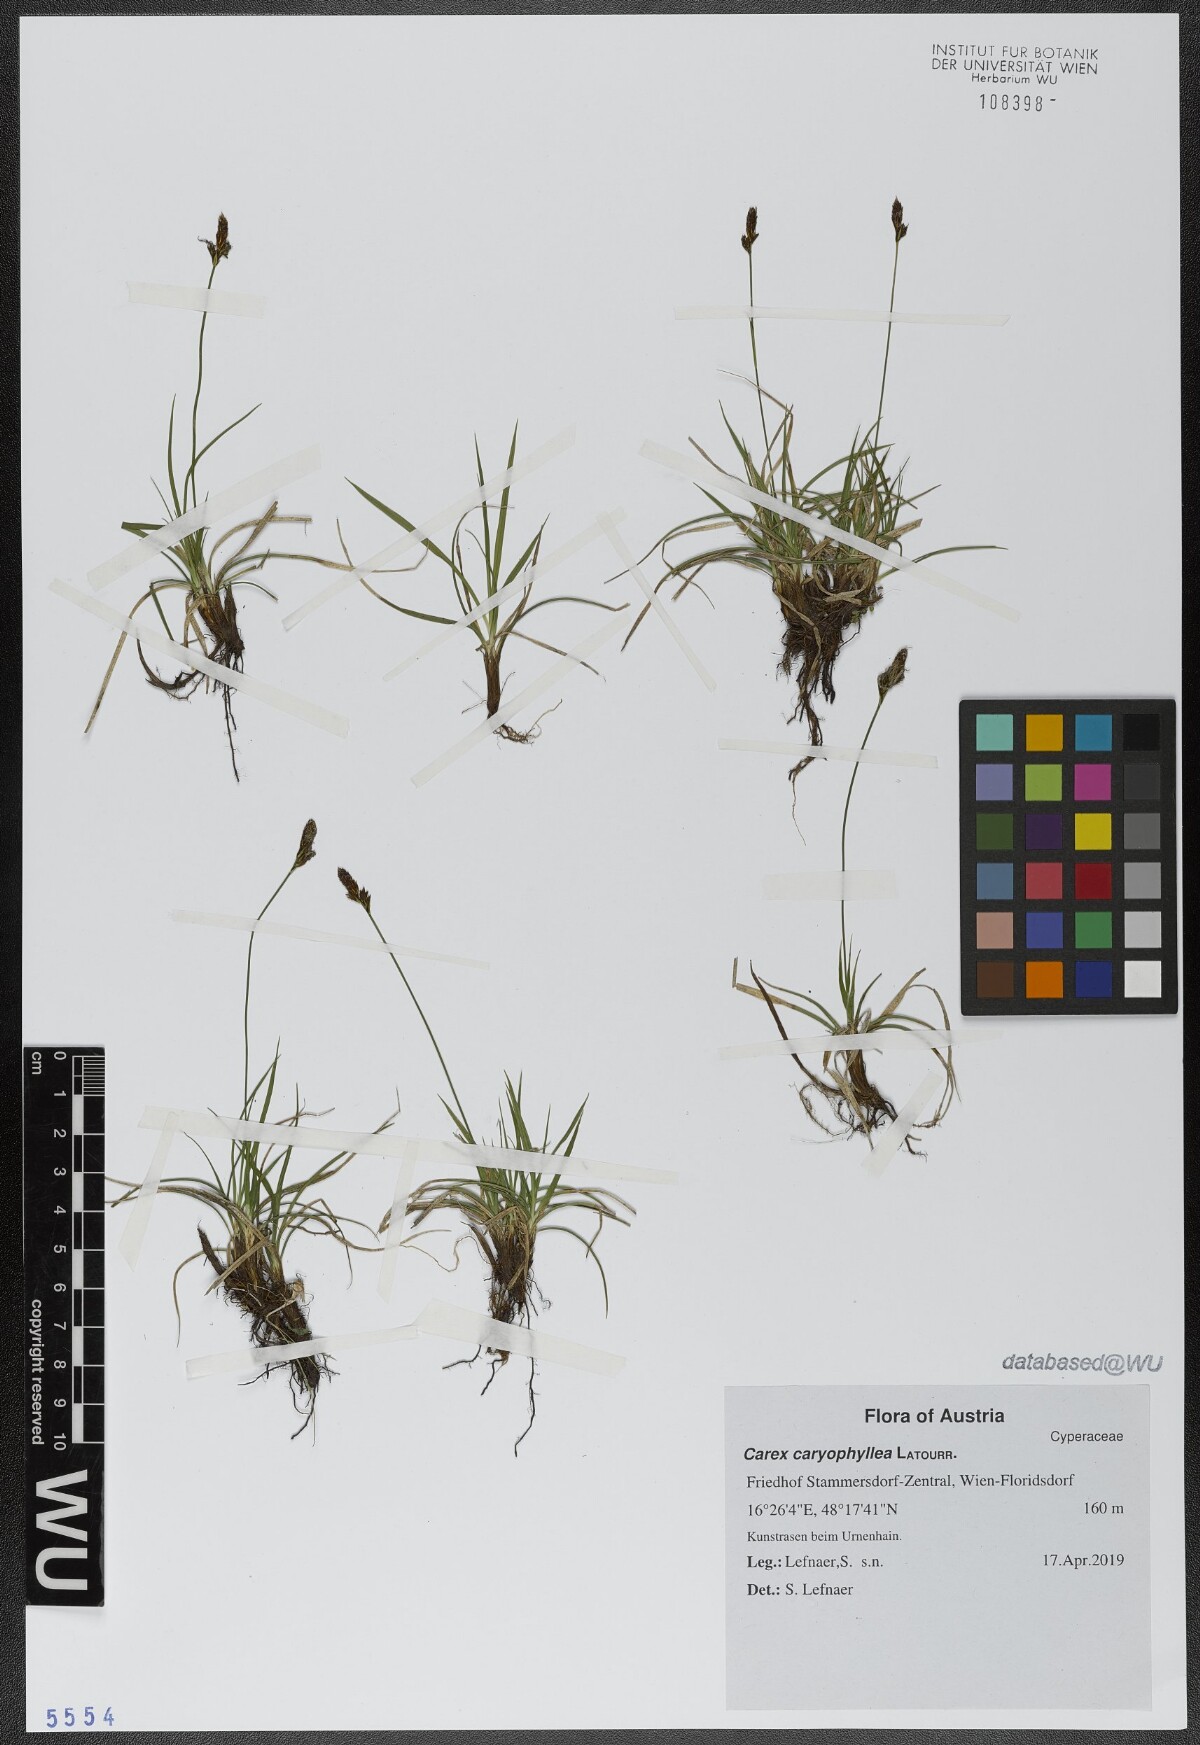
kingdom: Plantae
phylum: Tracheophyta
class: Liliopsida
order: Poales
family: Cyperaceae
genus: Carex
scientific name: Carex caryophyllea
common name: Spring sedge
